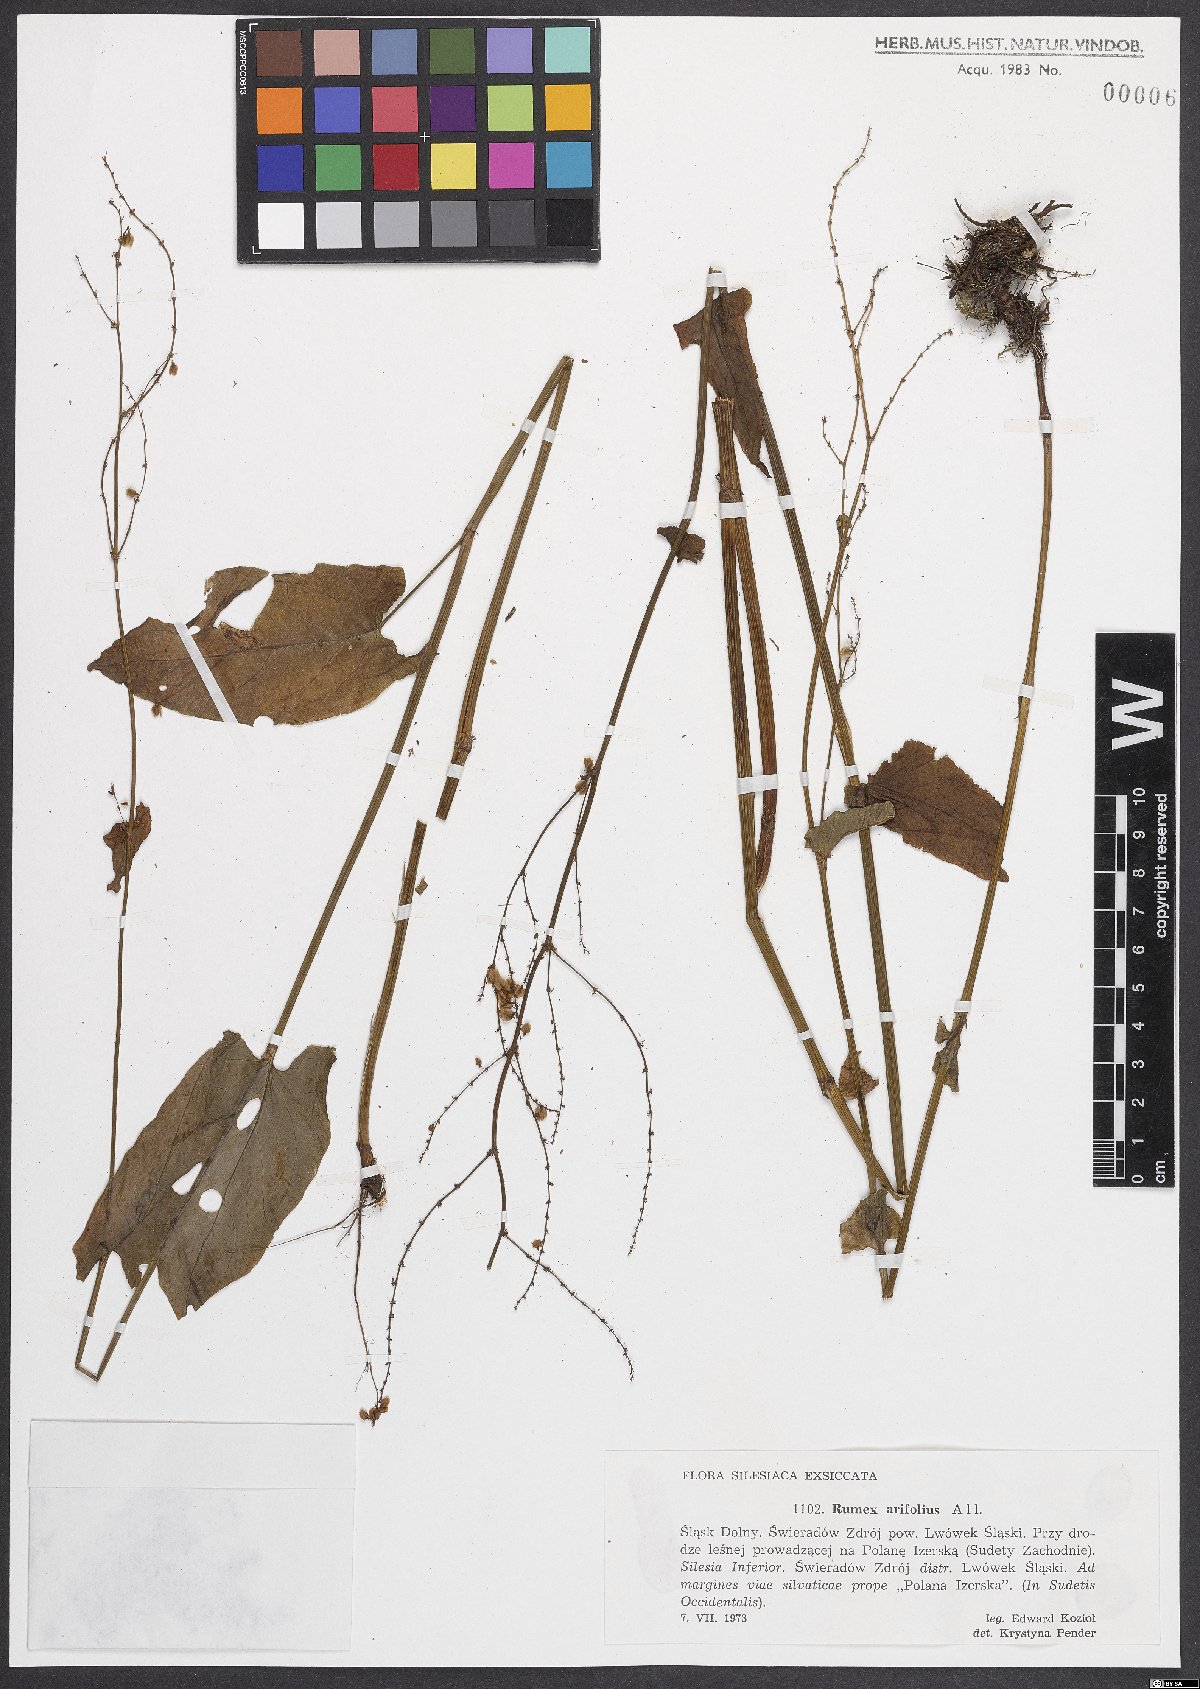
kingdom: Plantae
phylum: Tracheophyta
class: Magnoliopsida
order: Caryophyllales
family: Polygonaceae
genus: Rumex
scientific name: Rumex arifolius
